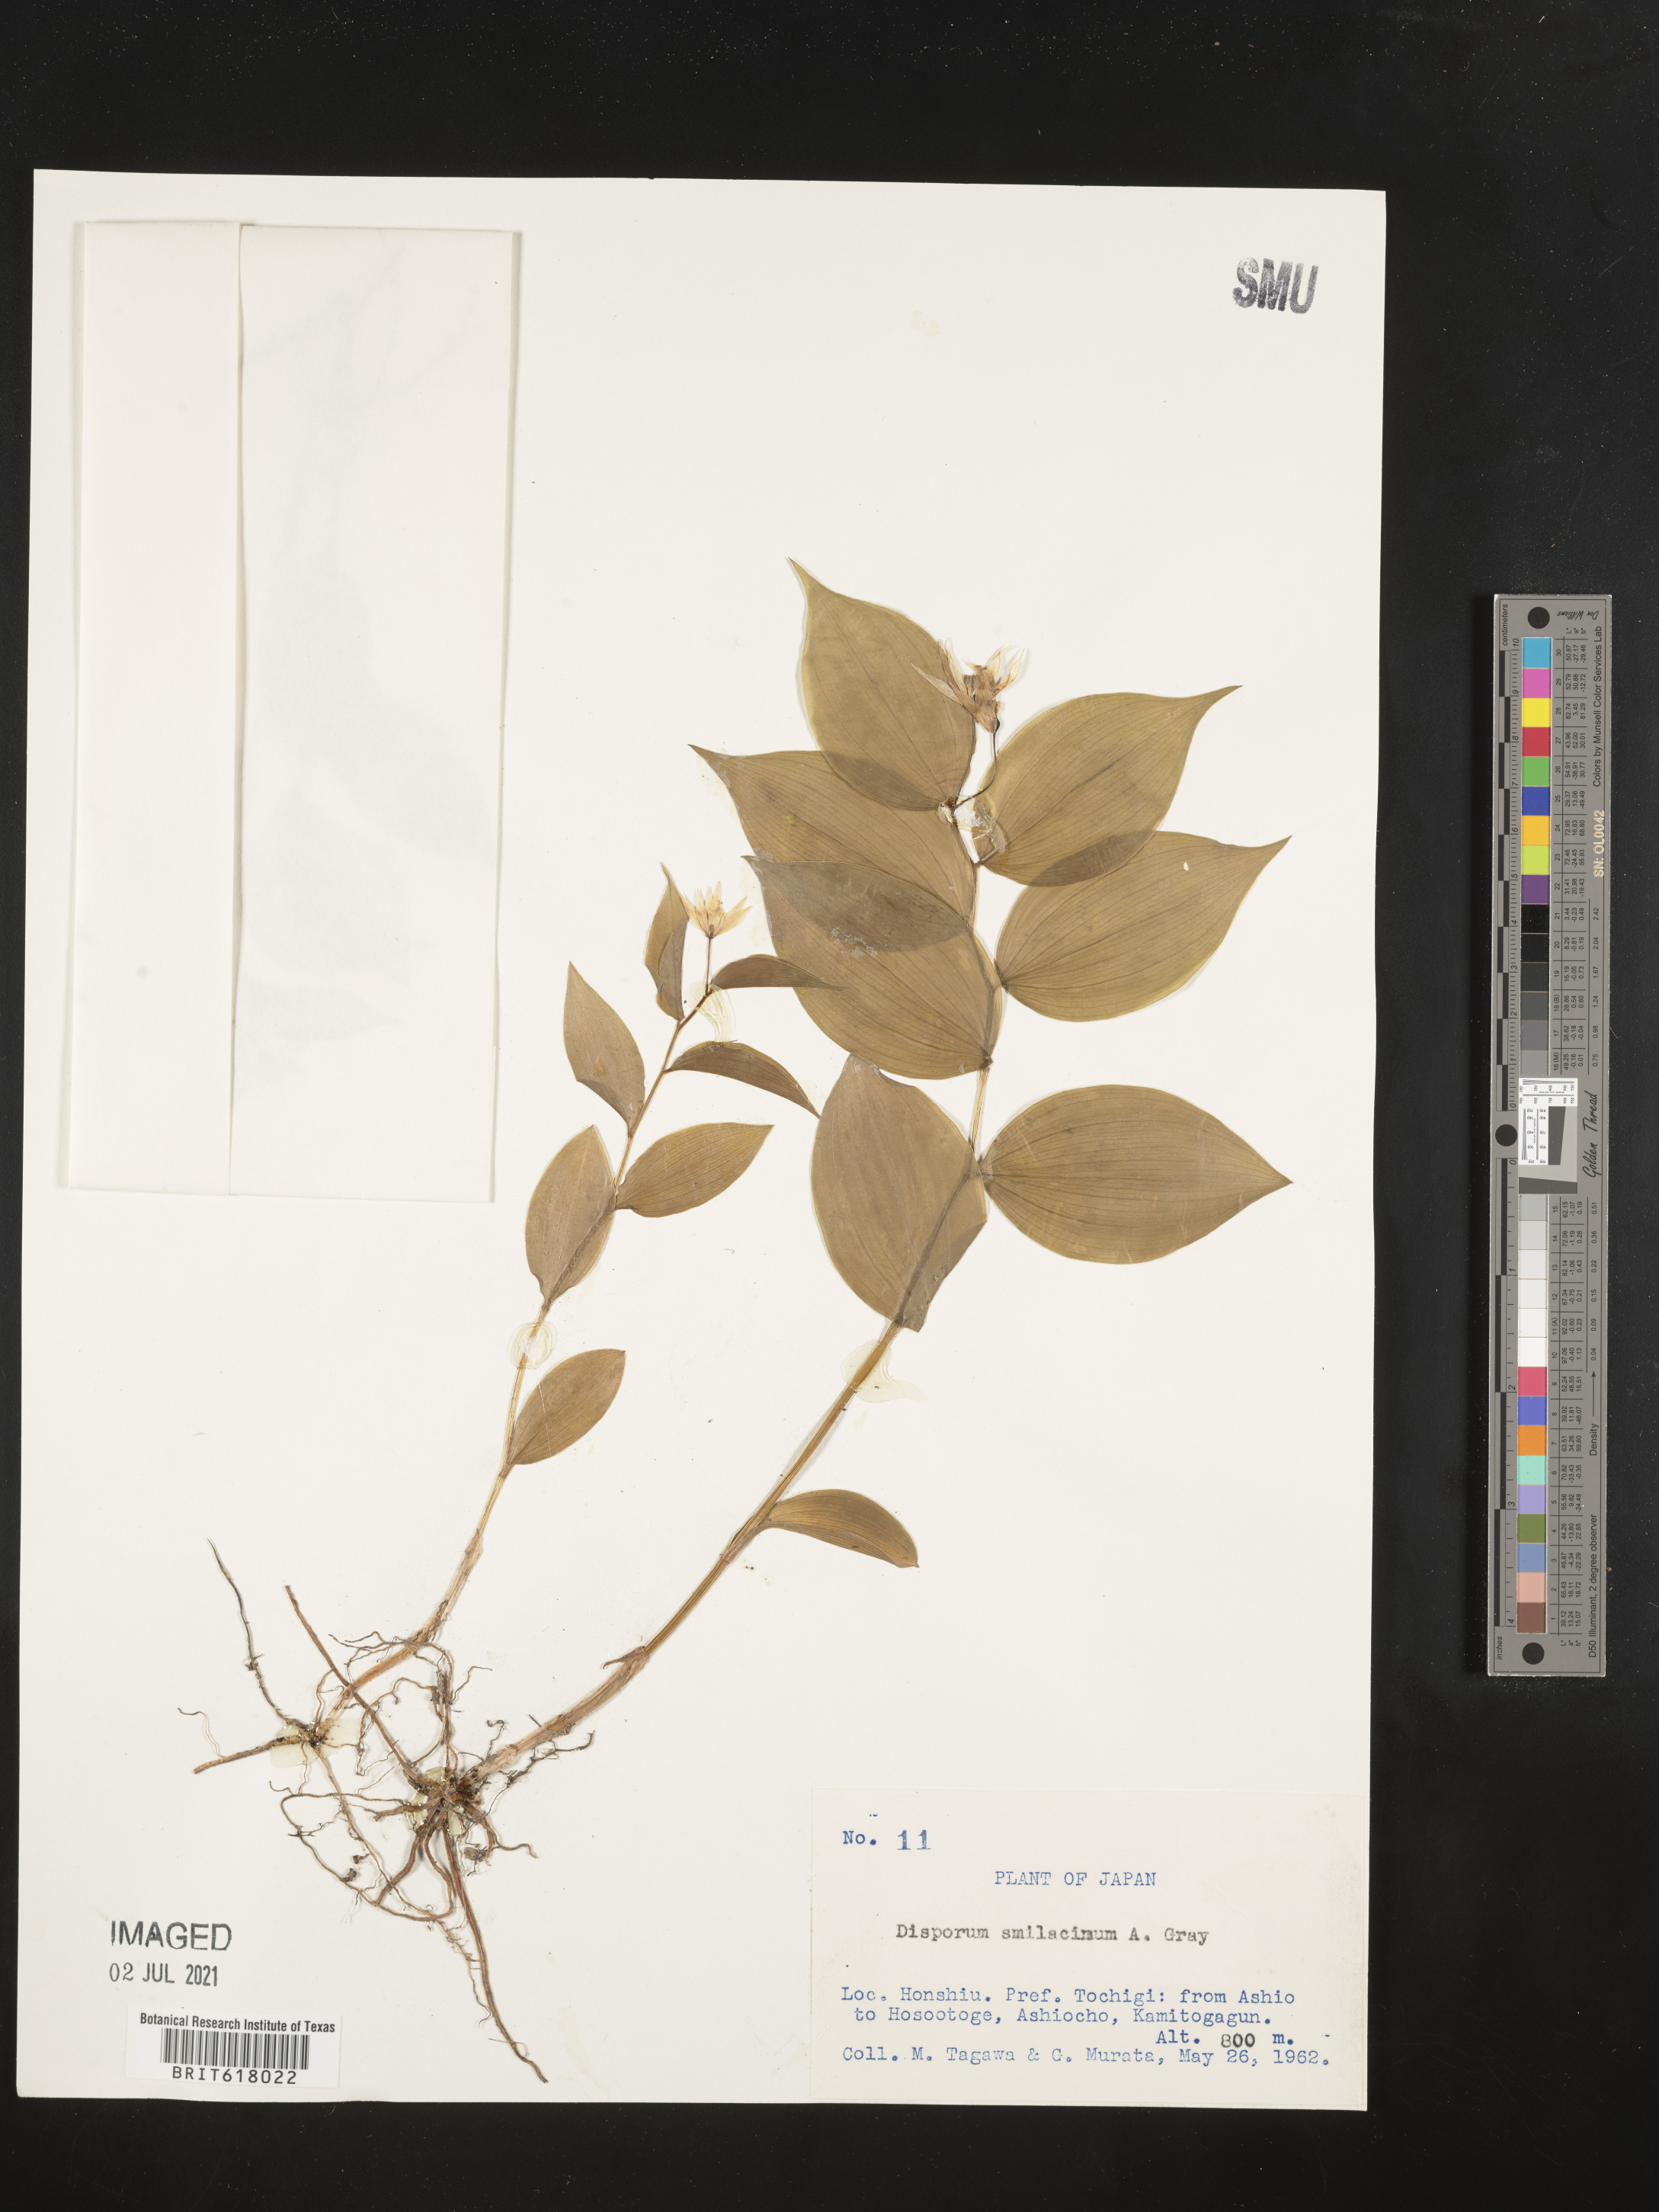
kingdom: Plantae
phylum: Tracheophyta
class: Liliopsida
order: Liliales
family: Colchicaceae
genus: Disporum
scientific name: Disporum smilacinum
